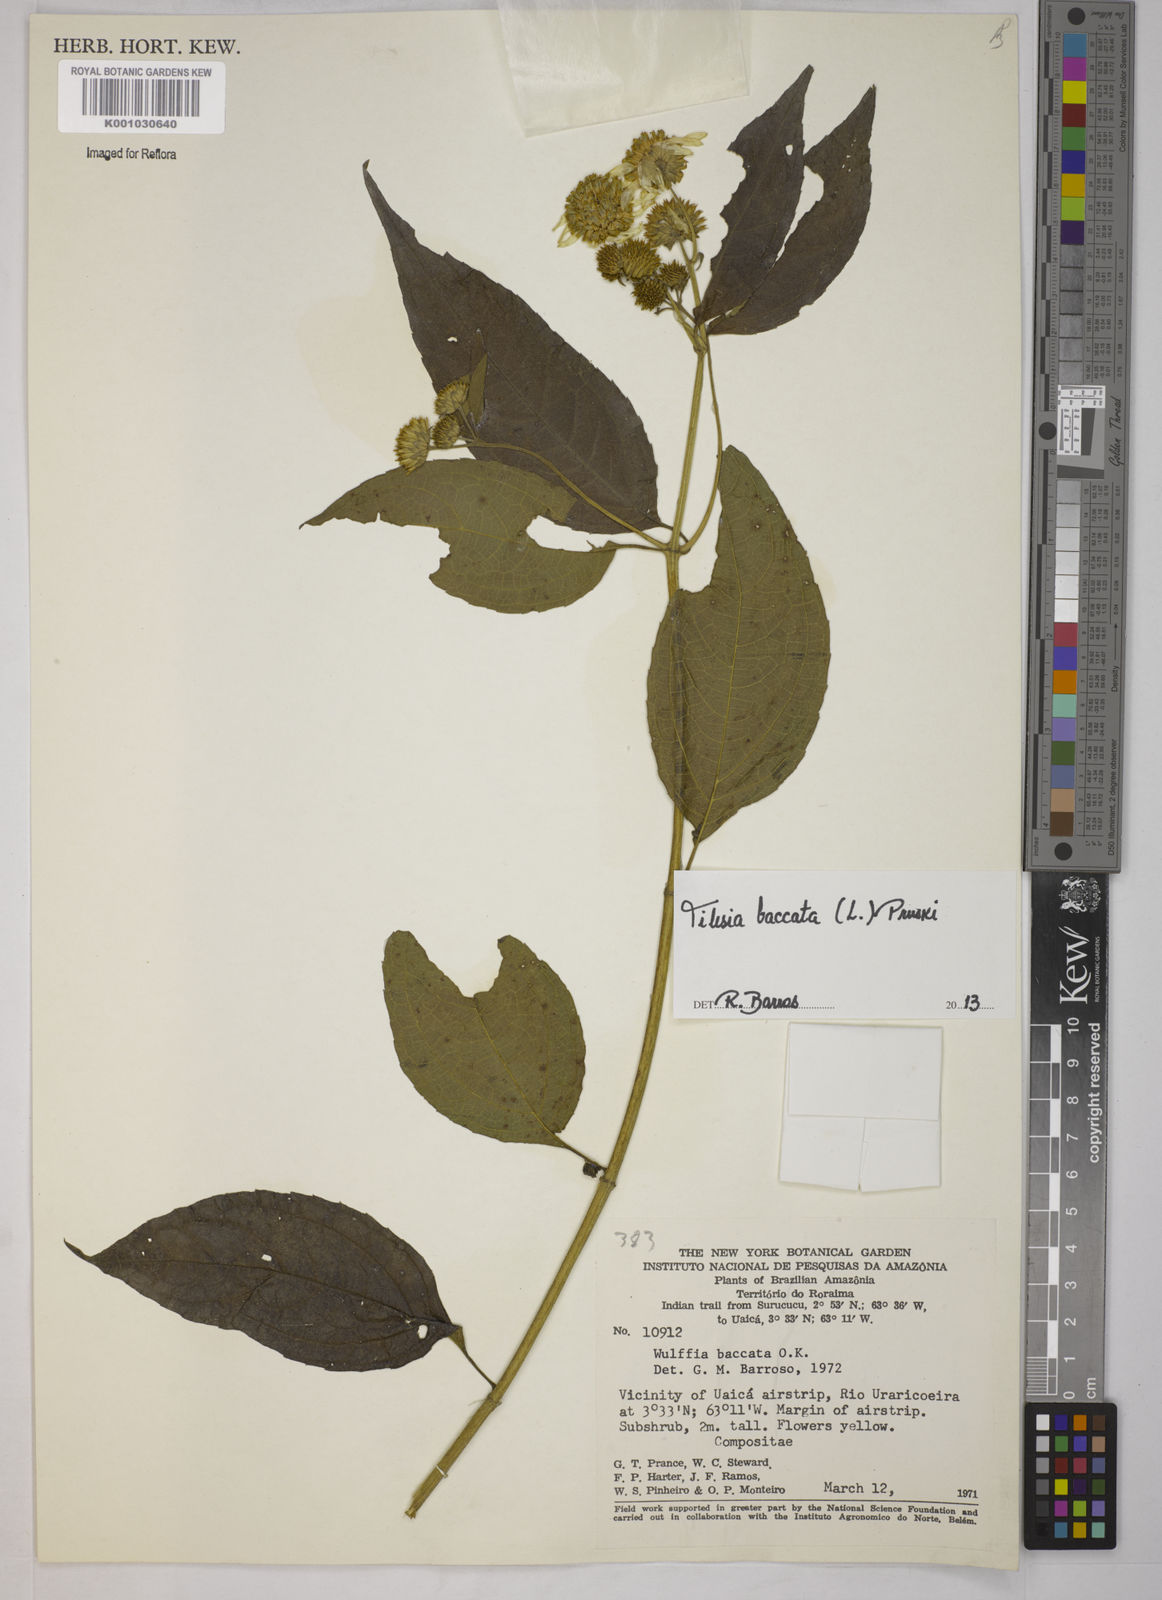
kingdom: Plantae
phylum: Tracheophyta
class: Magnoliopsida
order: Asterales
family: Asteraceae
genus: Tilesia
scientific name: Tilesia baccata
